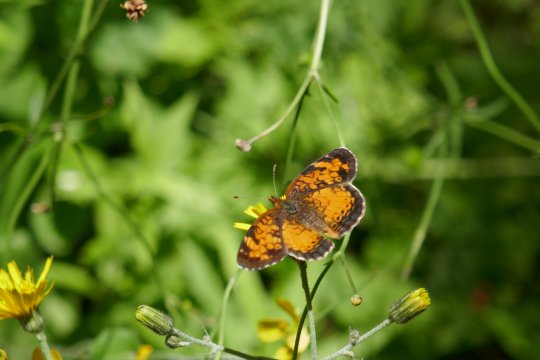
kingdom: Animalia
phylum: Arthropoda
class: Insecta
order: Lepidoptera
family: Nymphalidae
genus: Phyciodes
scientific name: Phyciodes tharos
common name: Northern Crescent
